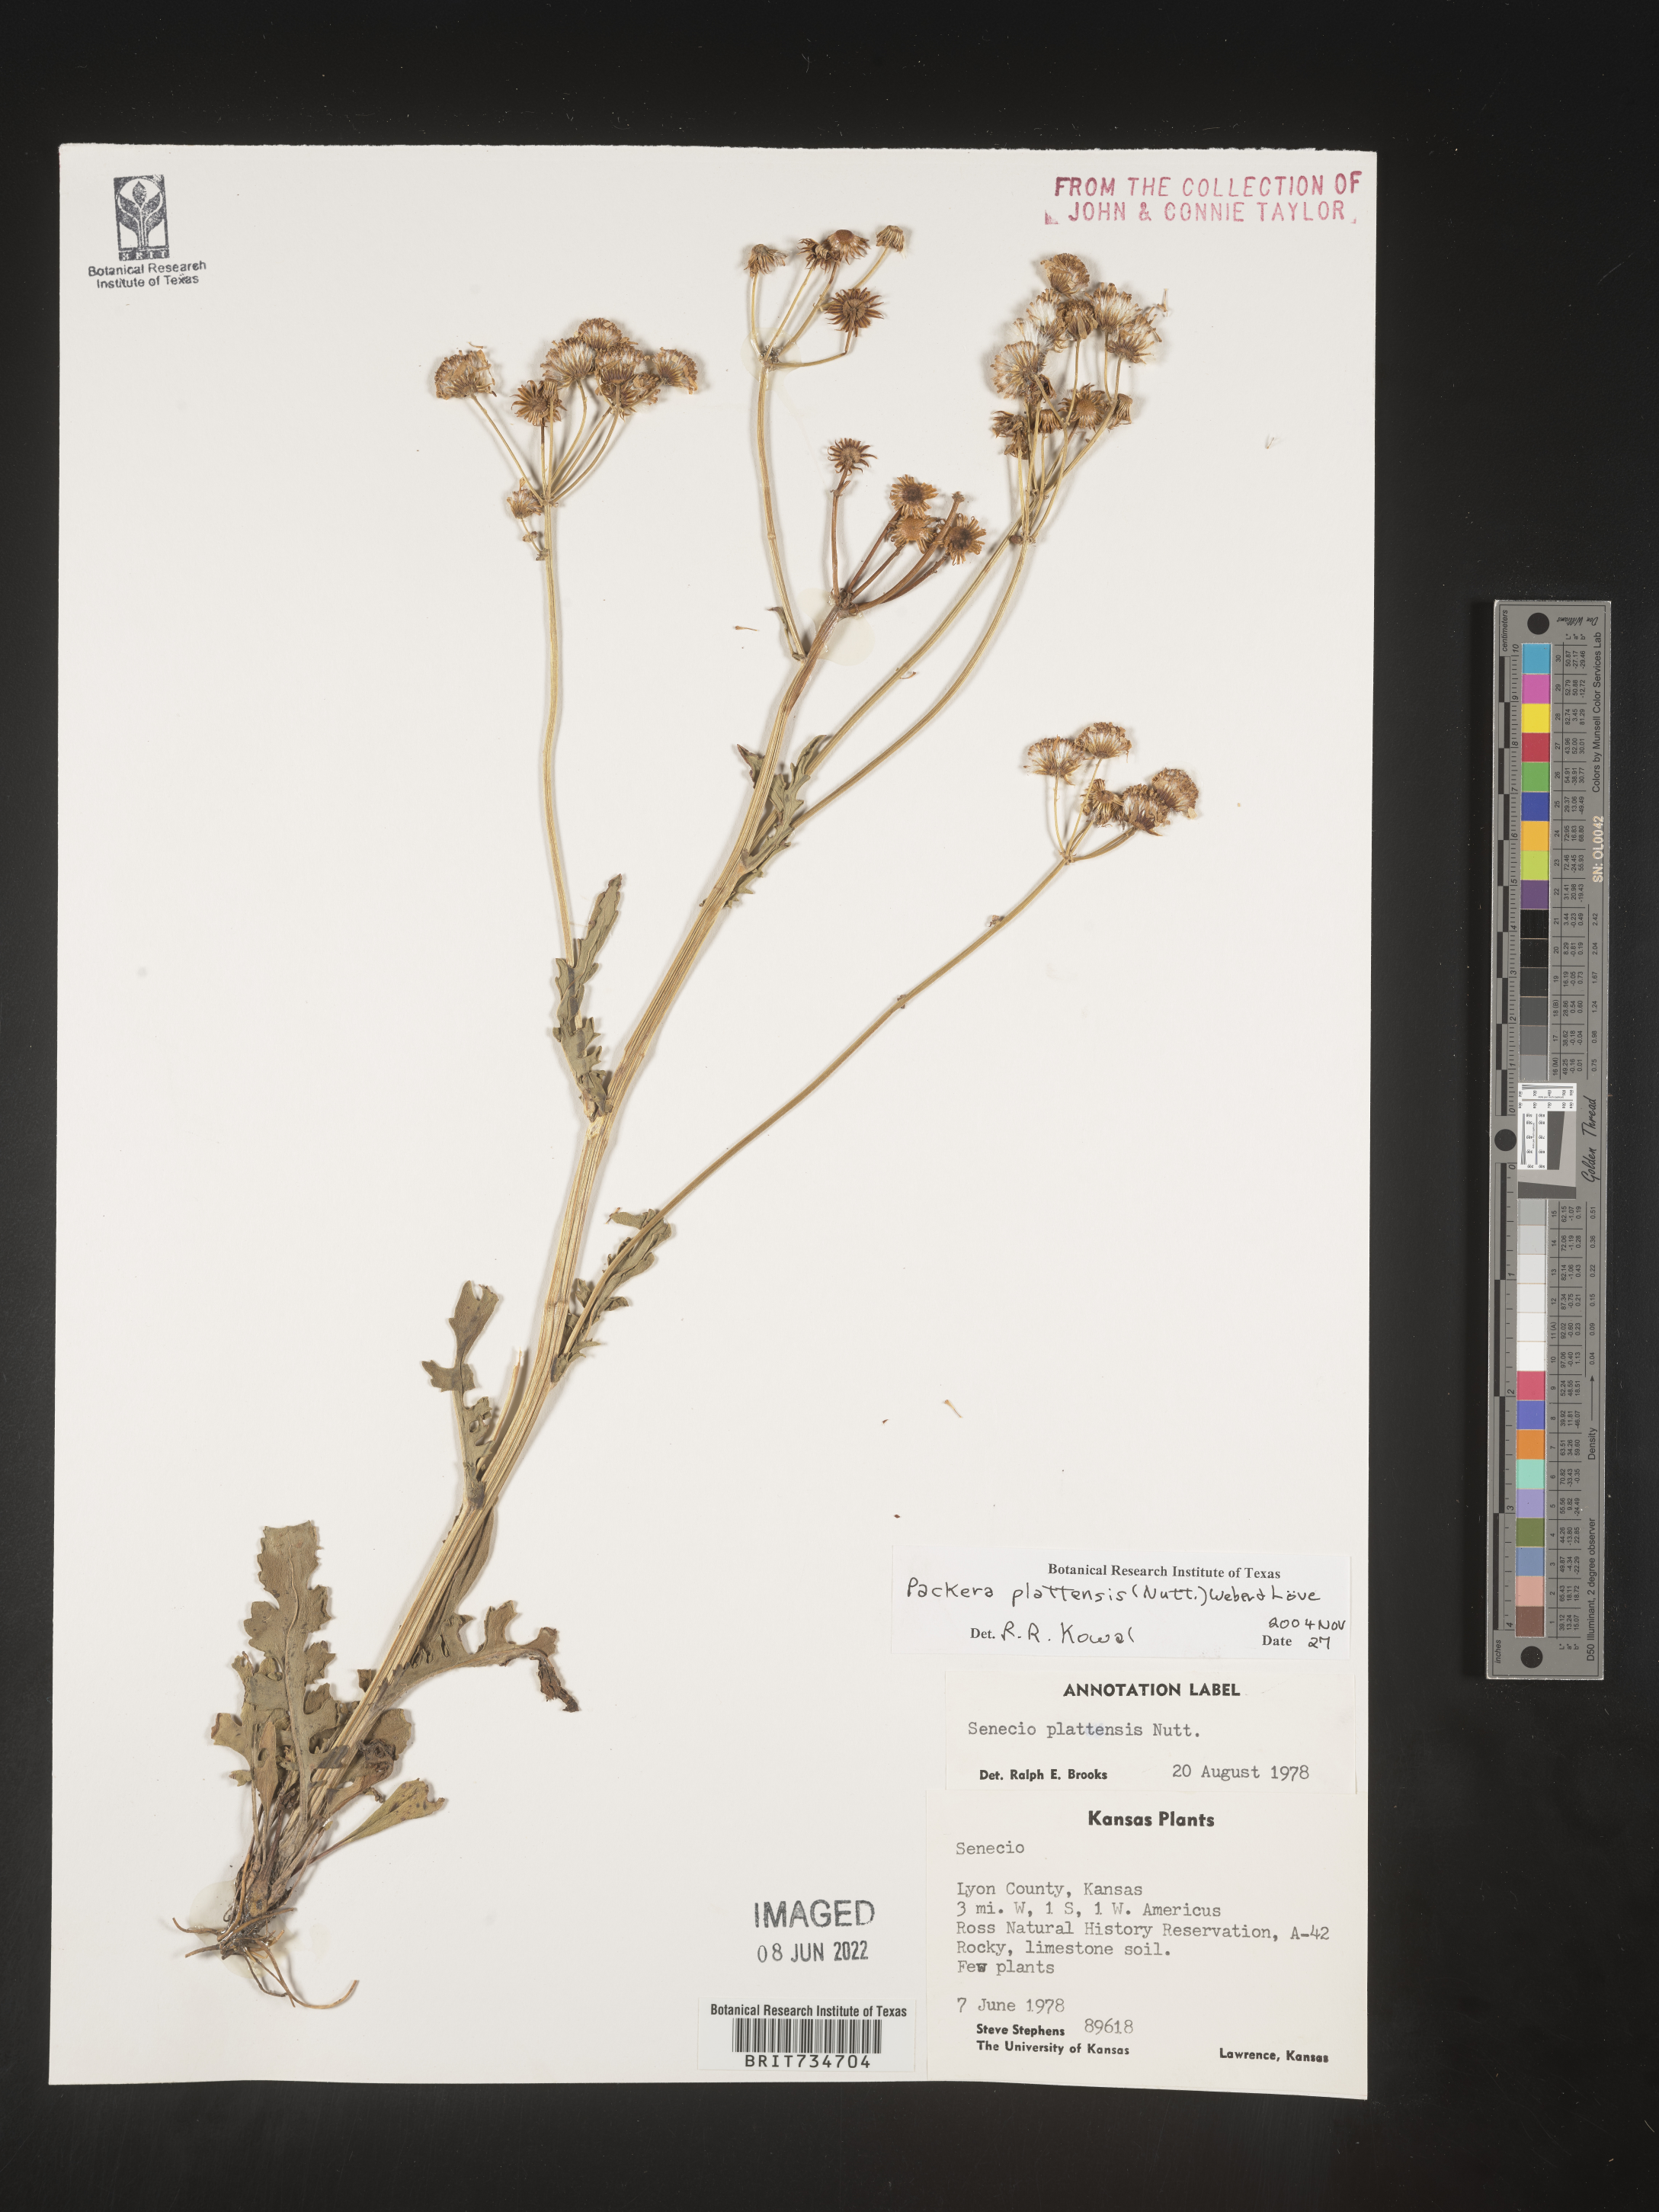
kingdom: Plantae
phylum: Tracheophyta
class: Magnoliopsida
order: Asterales
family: Asteraceae
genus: Packera
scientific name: Packera plattensis
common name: Prairie groundsel
